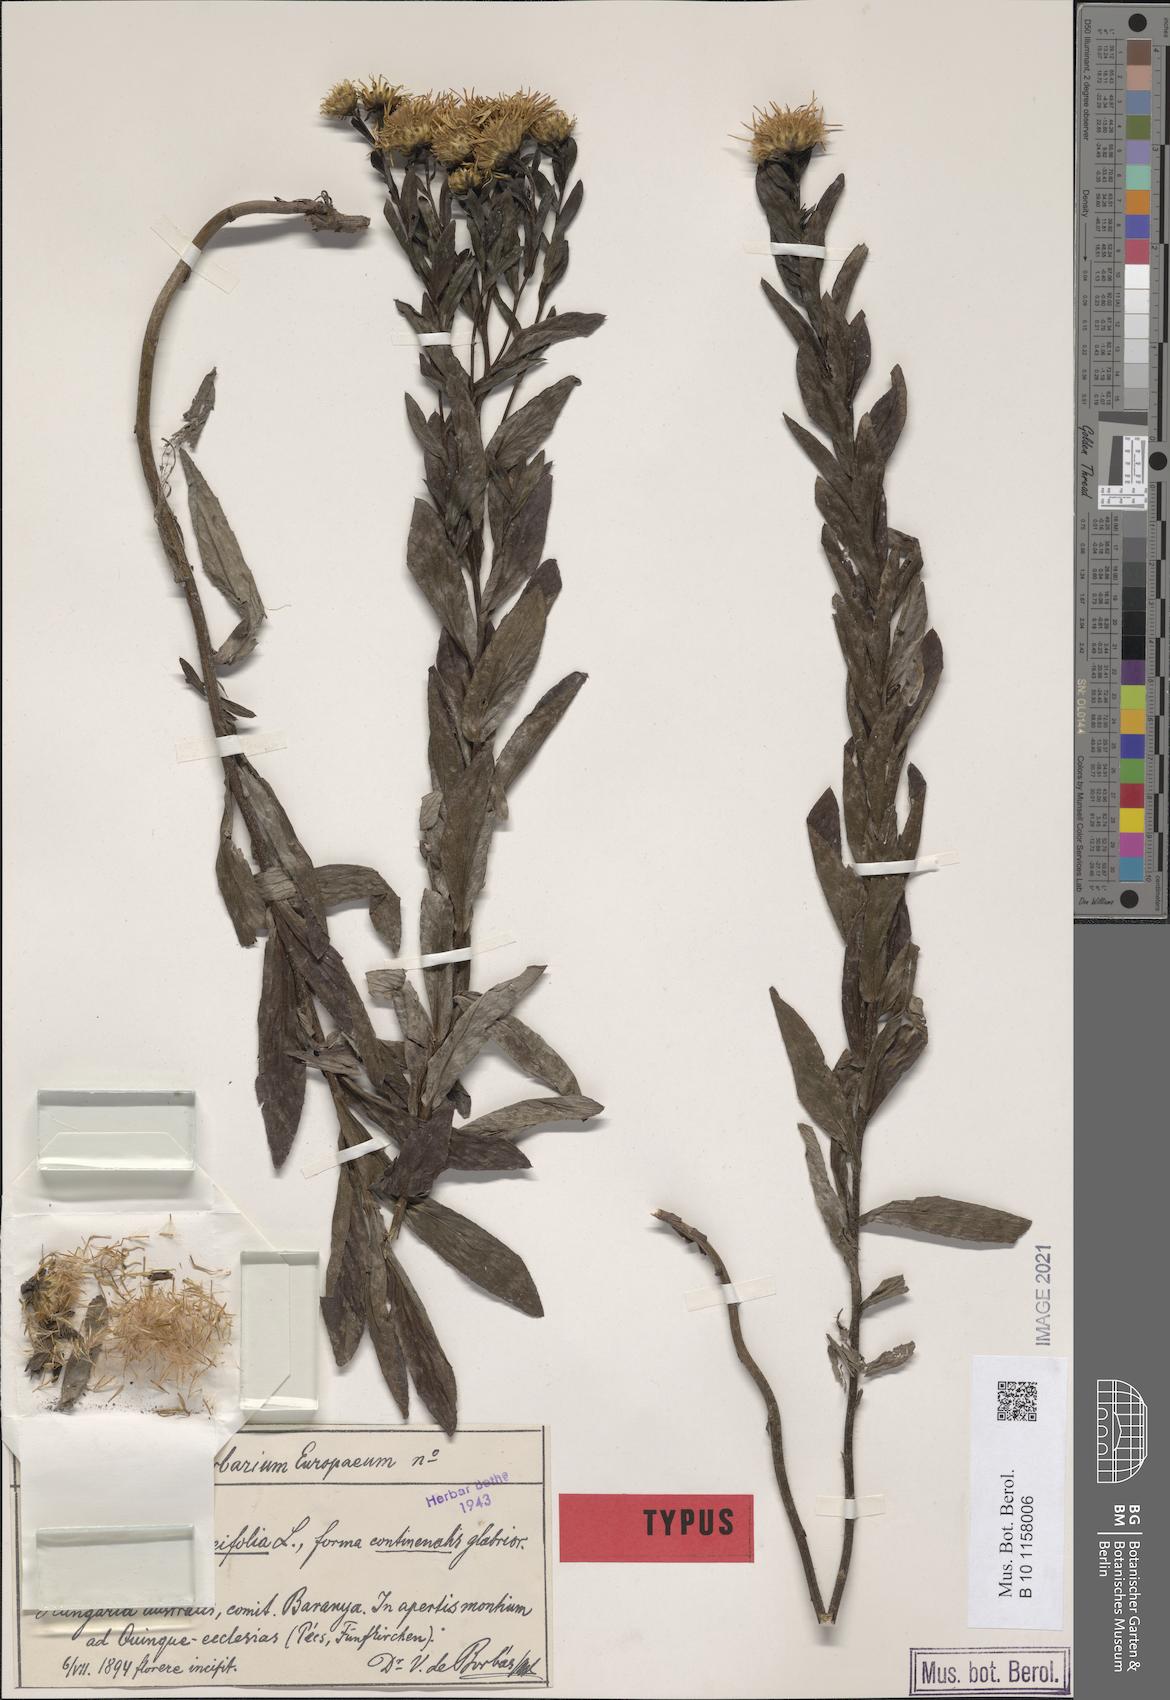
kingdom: Plantae
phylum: Tracheophyta
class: Magnoliopsida
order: Asterales
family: Asteraceae
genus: Pentanema
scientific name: Pentanema spiraeifolium
